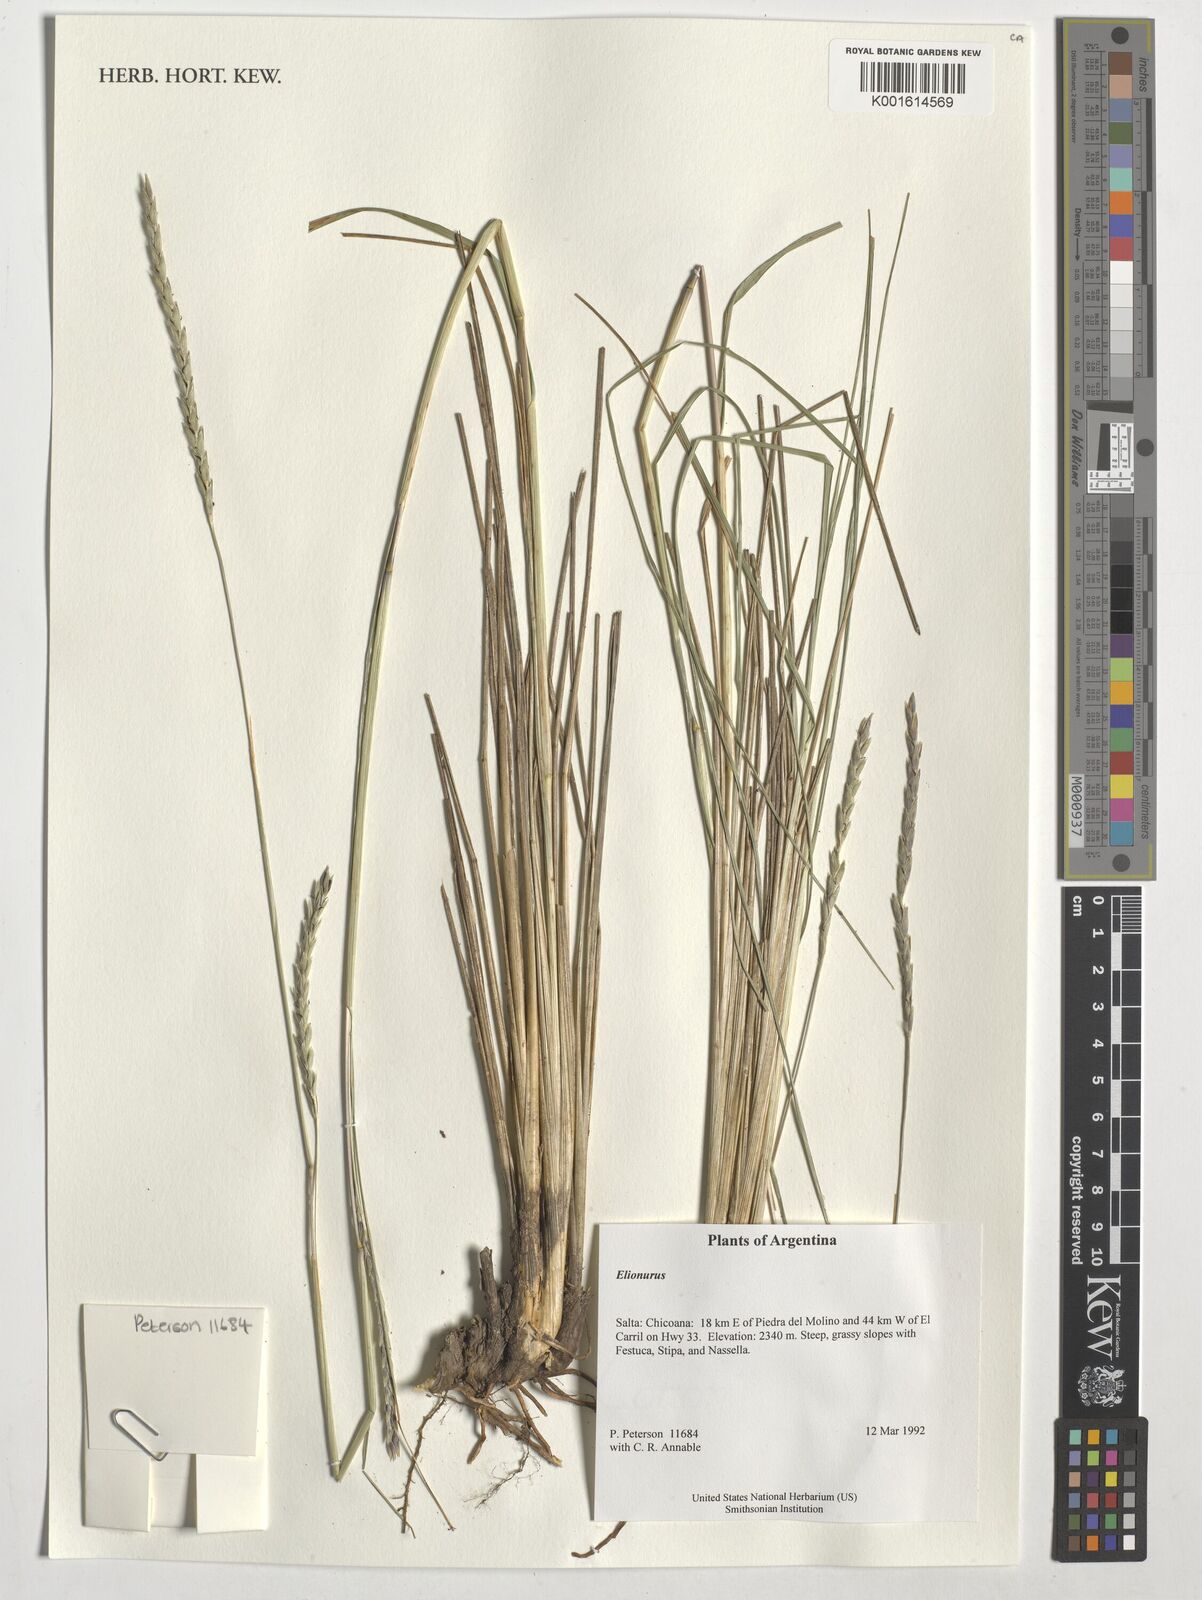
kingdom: Plantae
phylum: Tracheophyta
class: Liliopsida
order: Poales
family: Poaceae
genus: Elionurus
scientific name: Elionurus
